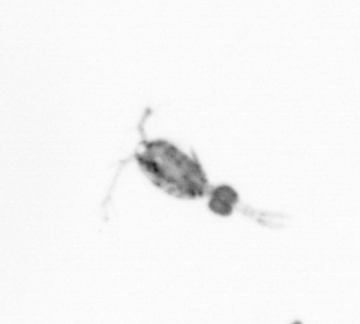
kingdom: Animalia
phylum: Arthropoda
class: Copepoda
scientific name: Copepoda
